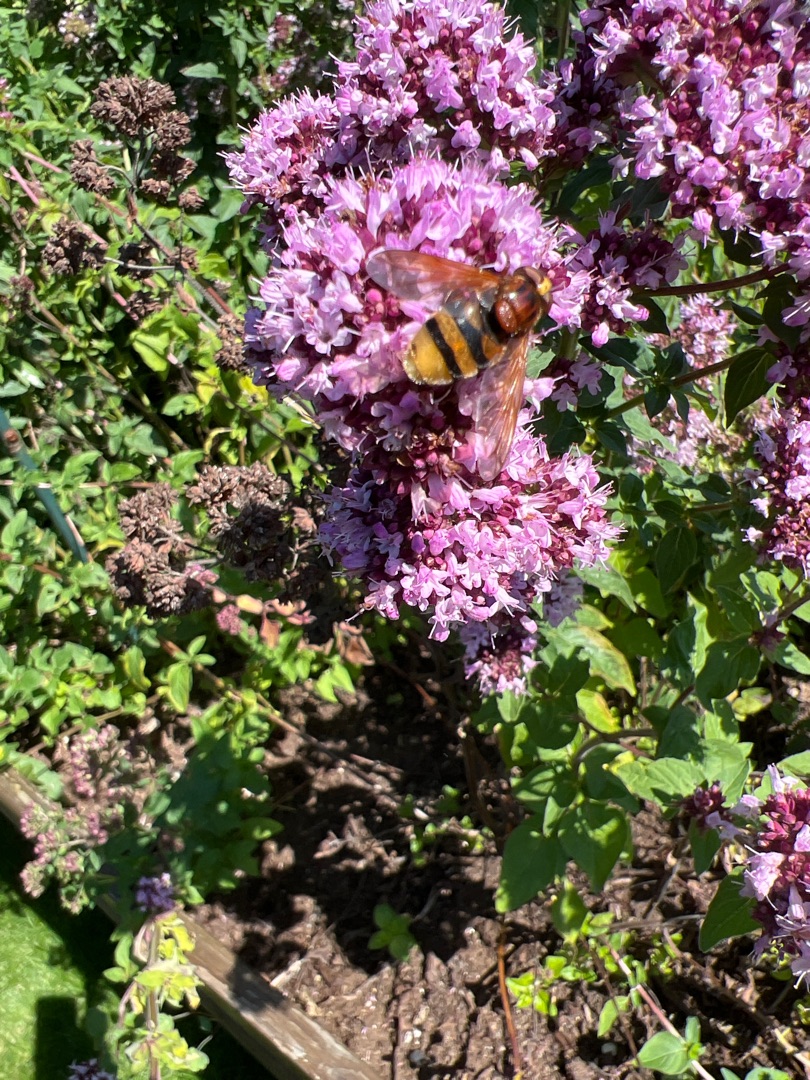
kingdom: Animalia
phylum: Arthropoda
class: Insecta
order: Diptera
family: Syrphidae
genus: Volucella
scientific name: Volucella zonaria
